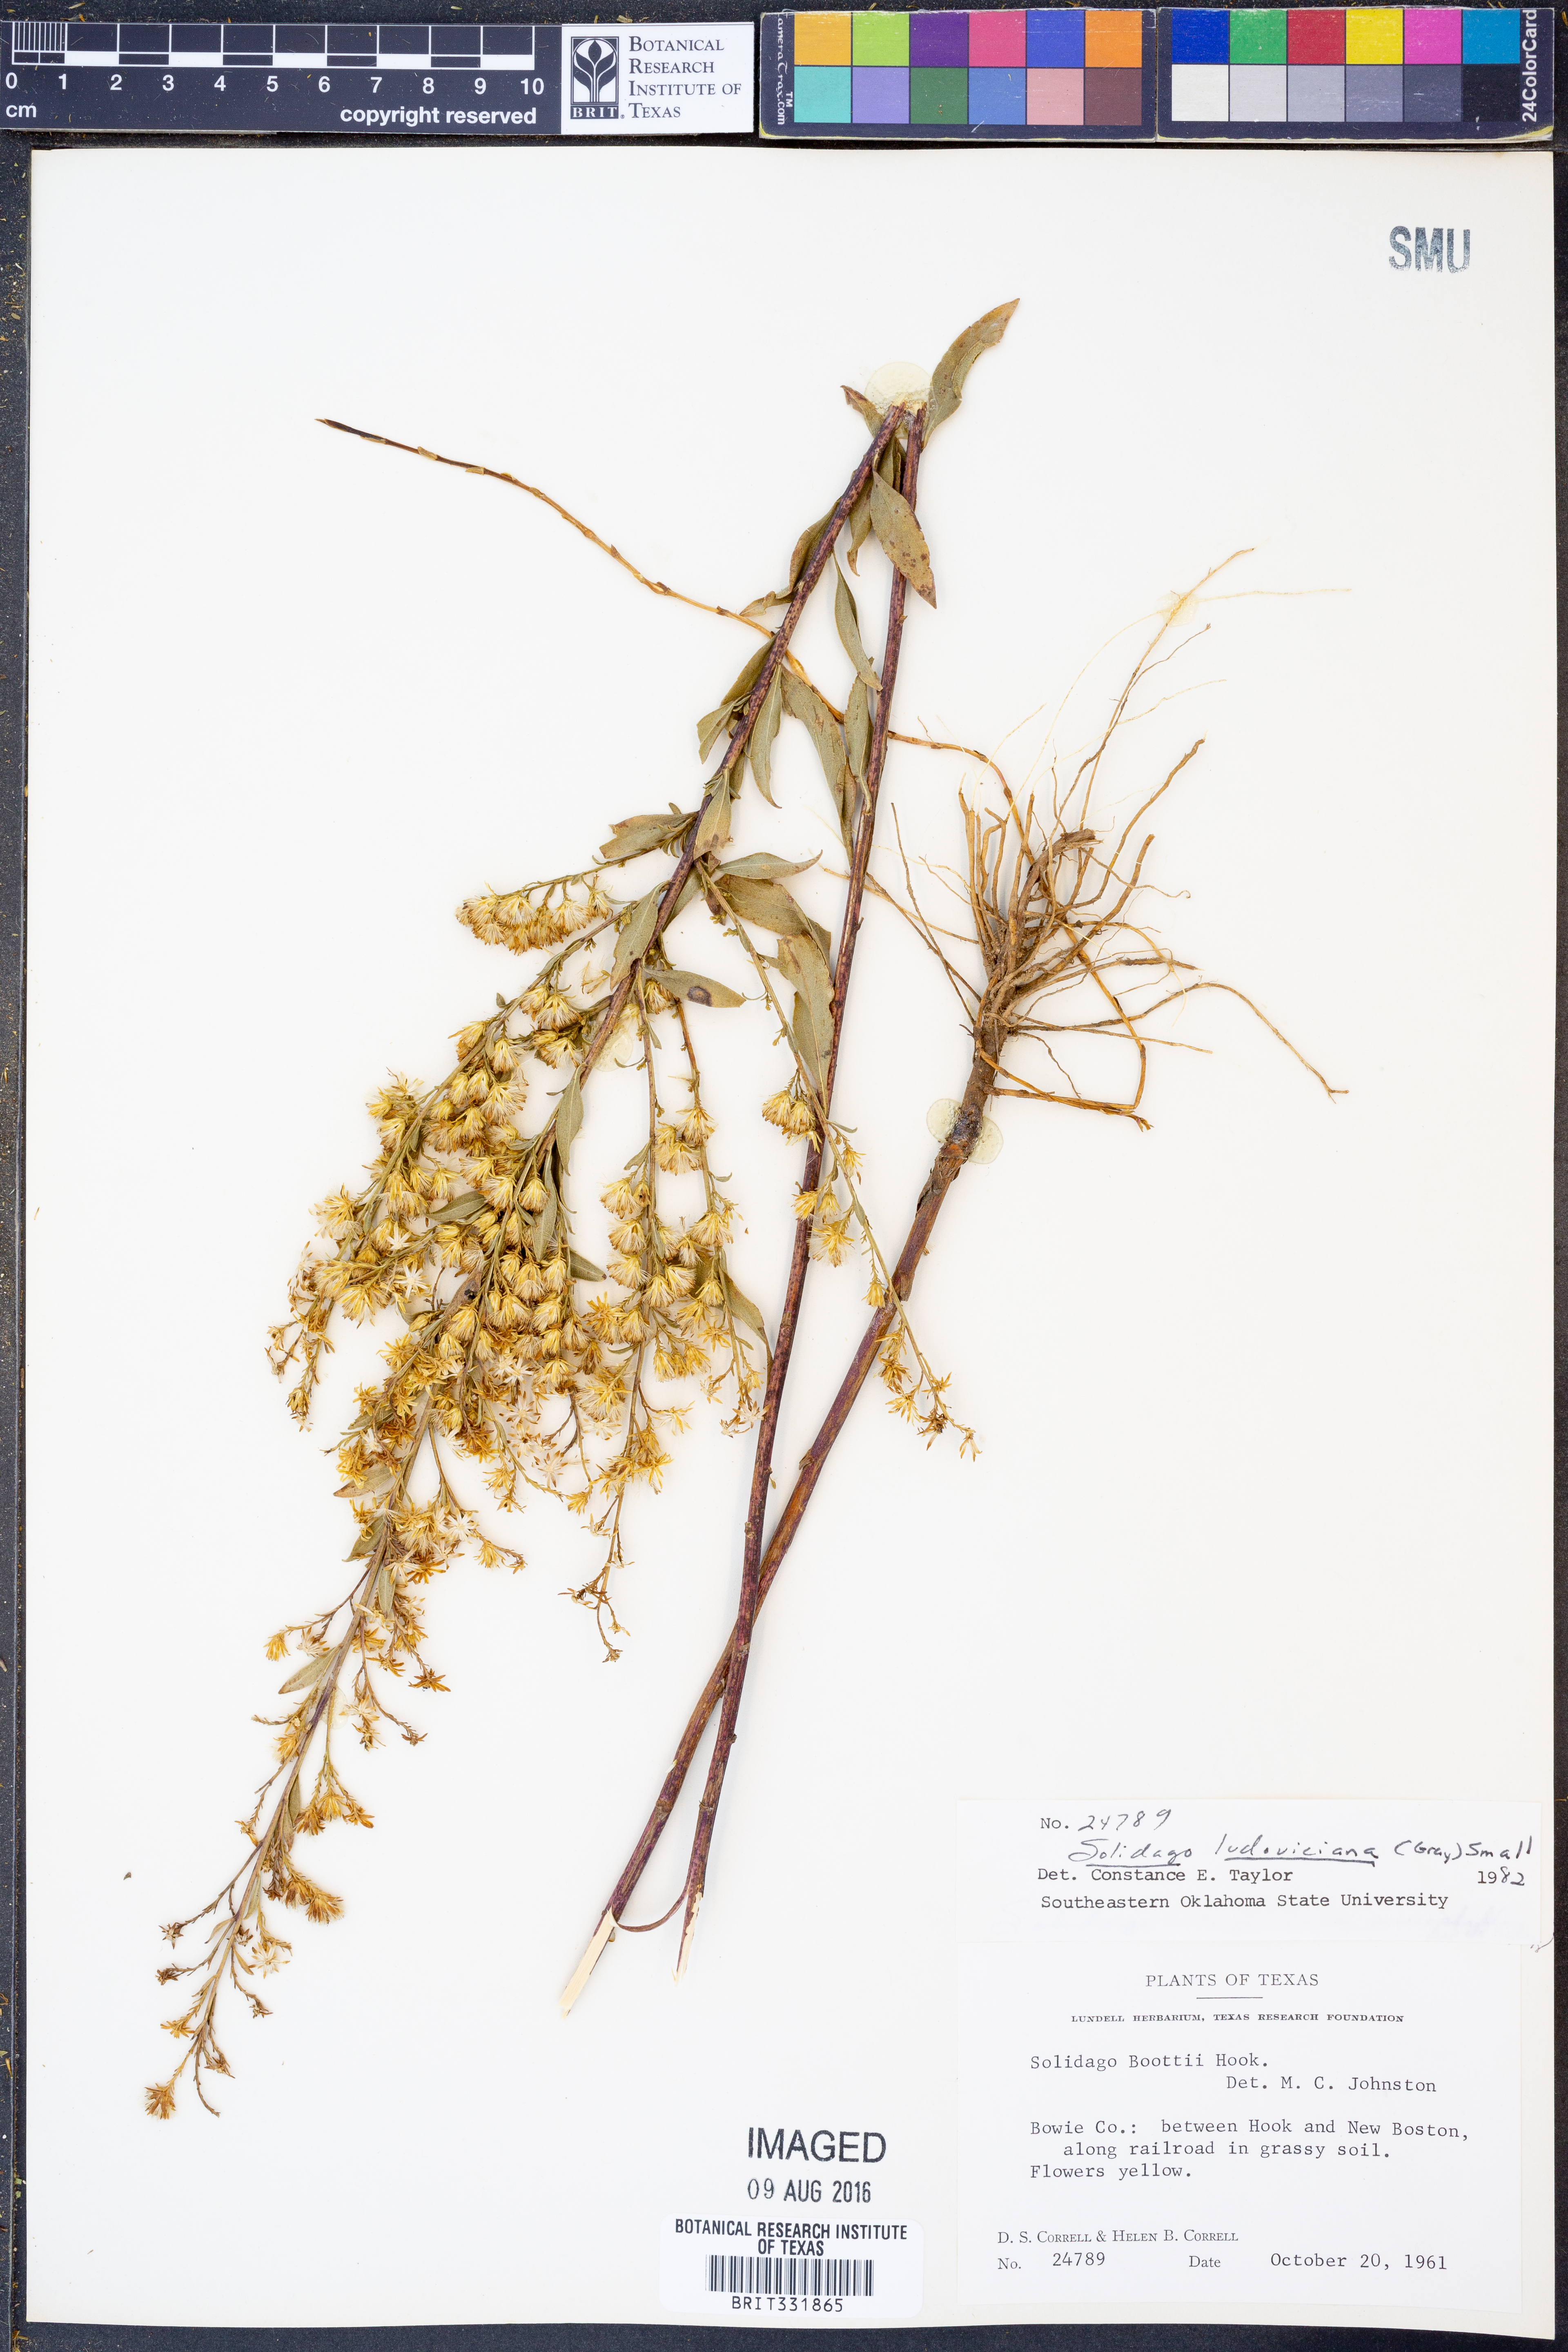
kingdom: Plantae
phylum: Tracheophyta
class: Magnoliopsida
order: Asterales
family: Asteraceae
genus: Solidago
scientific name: Solidago ludoviciana
